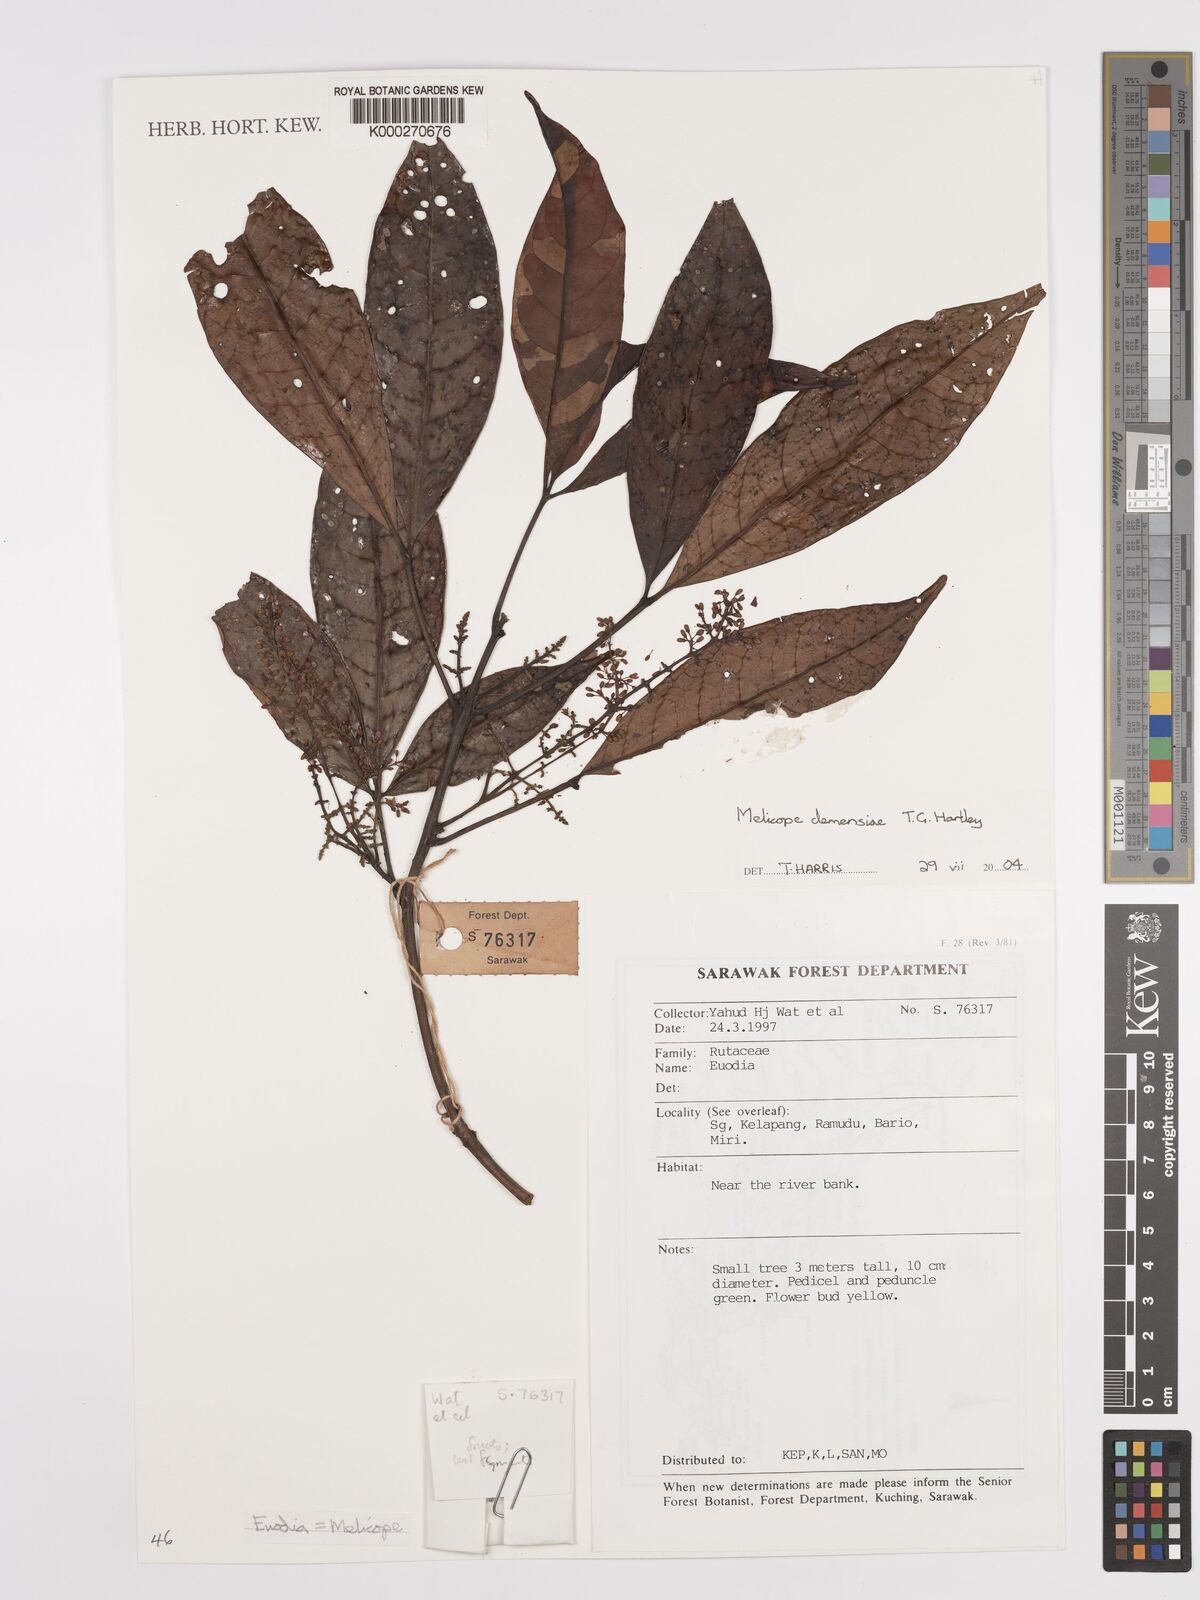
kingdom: Plantae
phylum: Tracheophyta
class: Magnoliopsida
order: Sapindales
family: Rutaceae
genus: Melicope
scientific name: Melicope clemensiae
